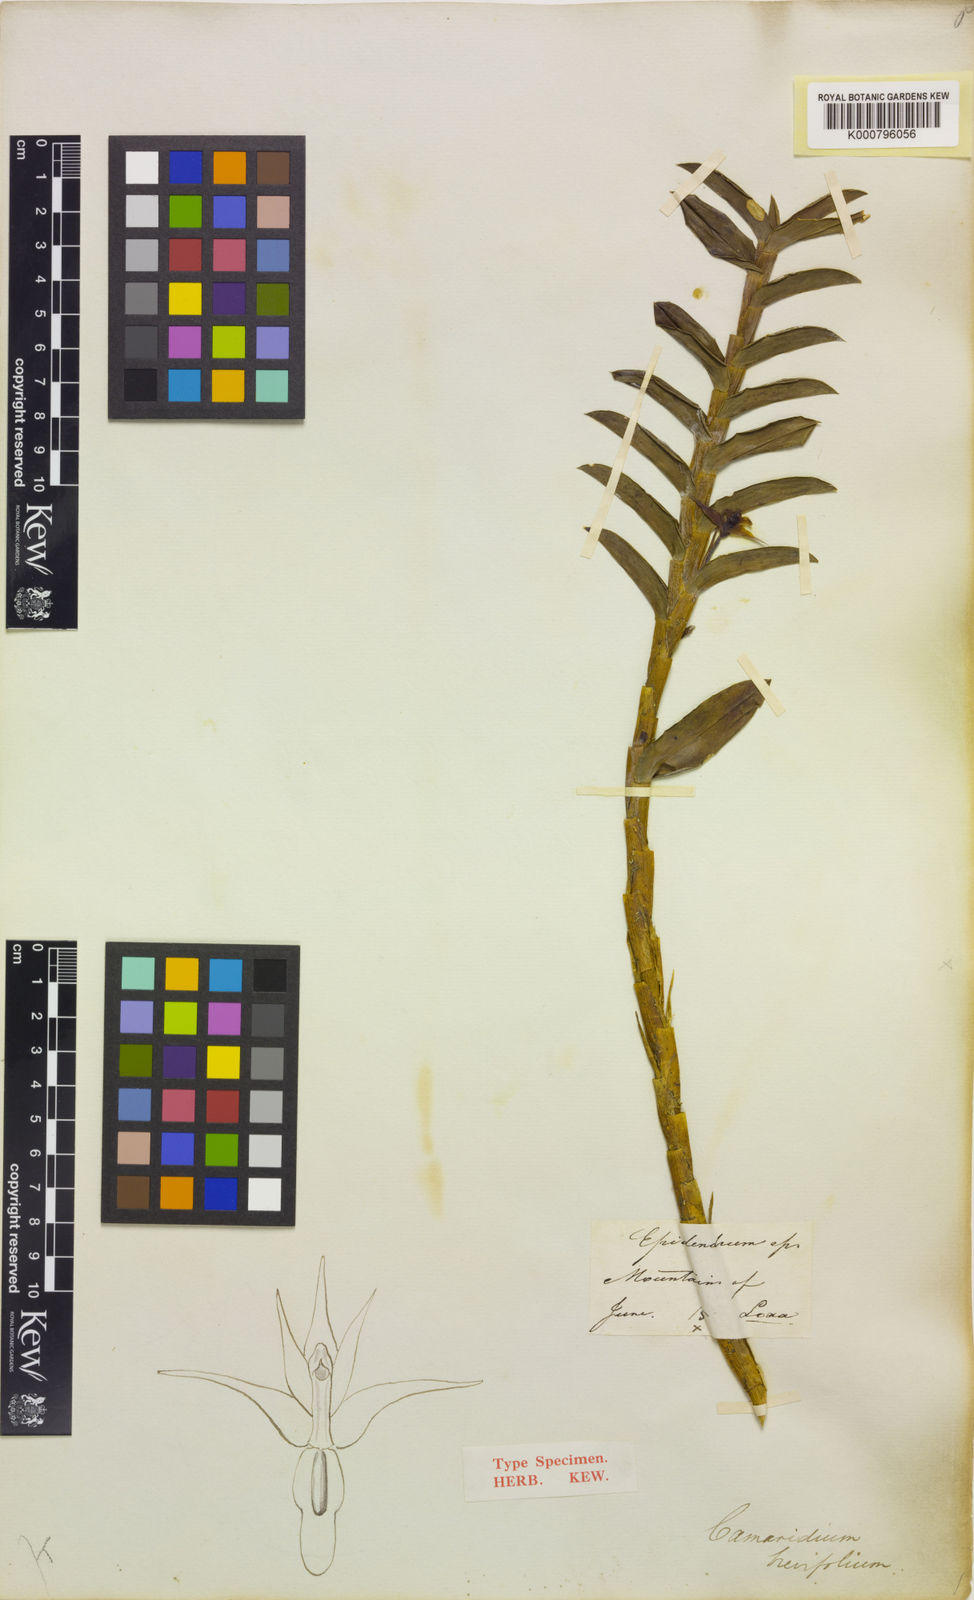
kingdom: Plantae
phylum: Tracheophyta
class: Liliopsida
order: Asparagales
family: Orchidaceae
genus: Maxillaria
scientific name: Maxillaria brevifolia
